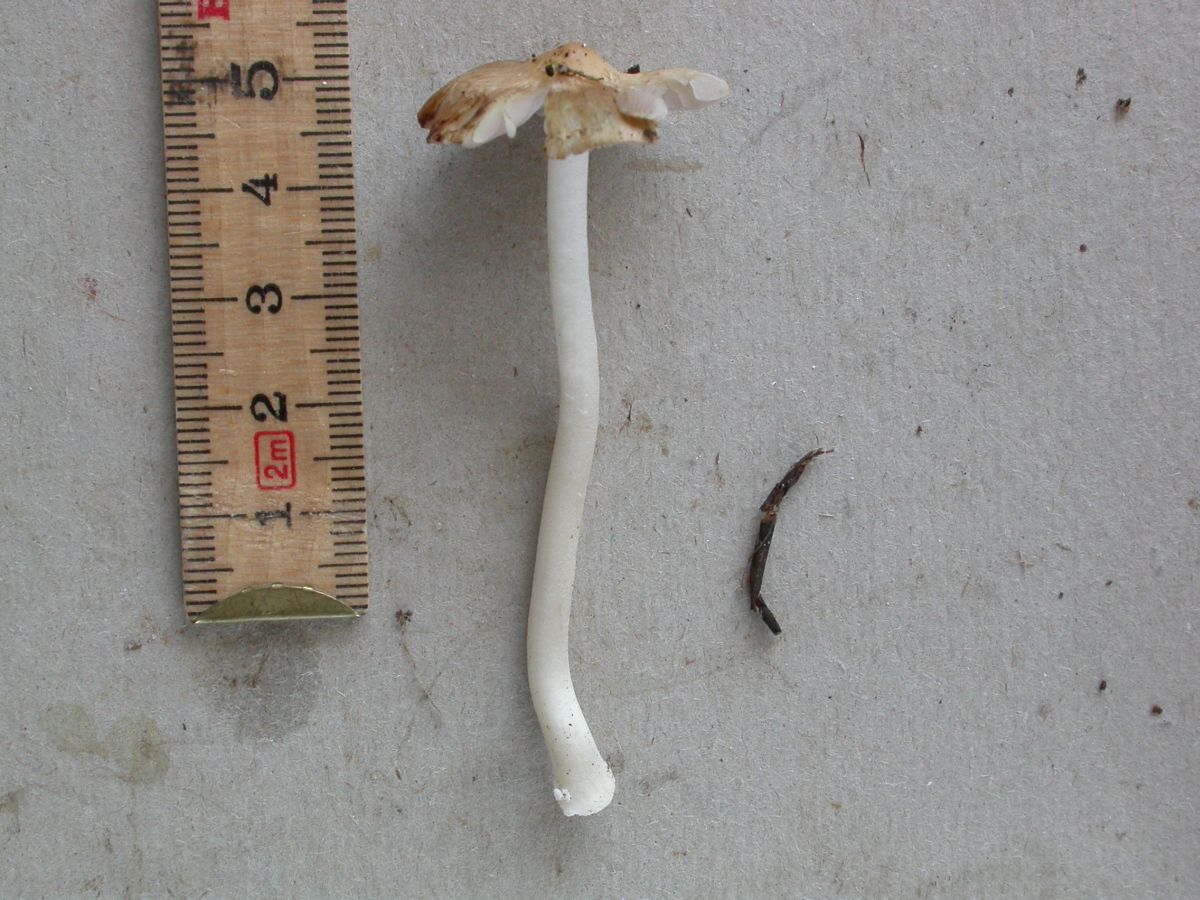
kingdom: Fungi
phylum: Basidiomycota
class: Agaricomycetes
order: Agaricales
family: Inocybaceae
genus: Inocybe
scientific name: Inocybe mixtilis
